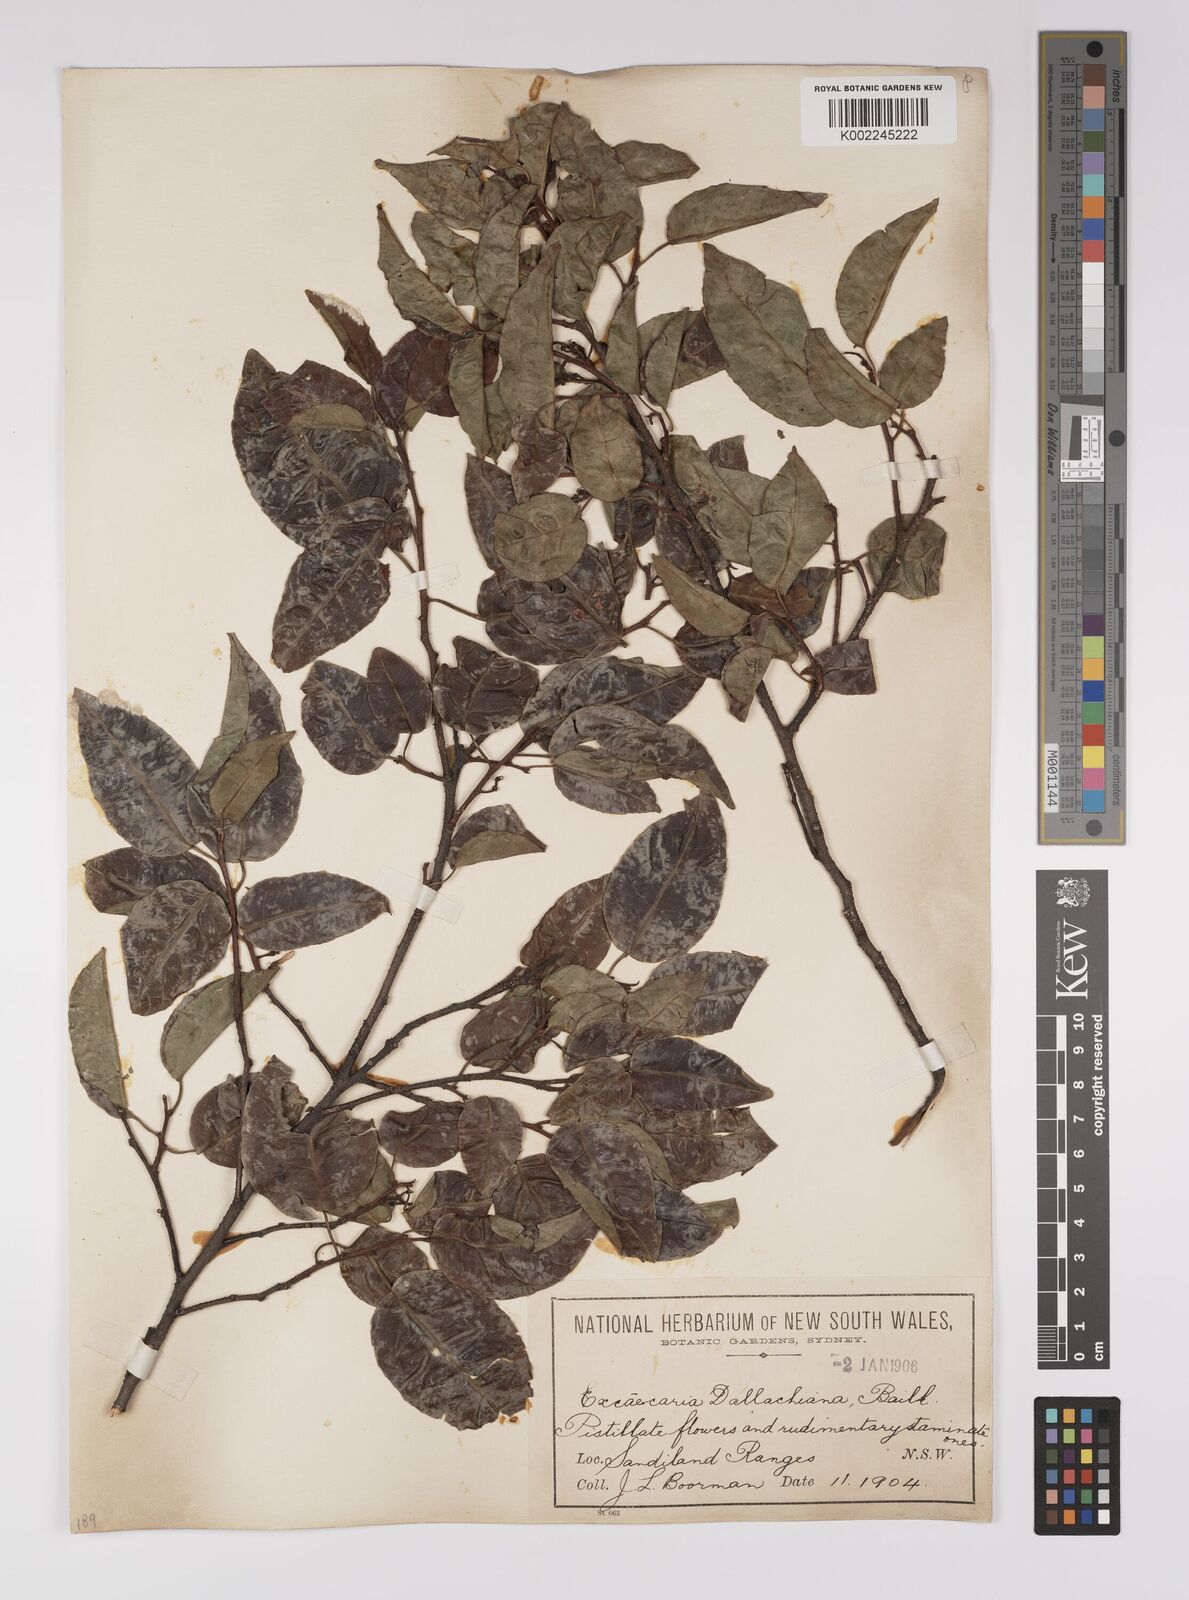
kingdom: Plantae
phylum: Tracheophyta
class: Magnoliopsida
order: Malpighiales
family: Euphorbiaceae
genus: Excoecaria
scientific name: Excoecaria dallachyana
